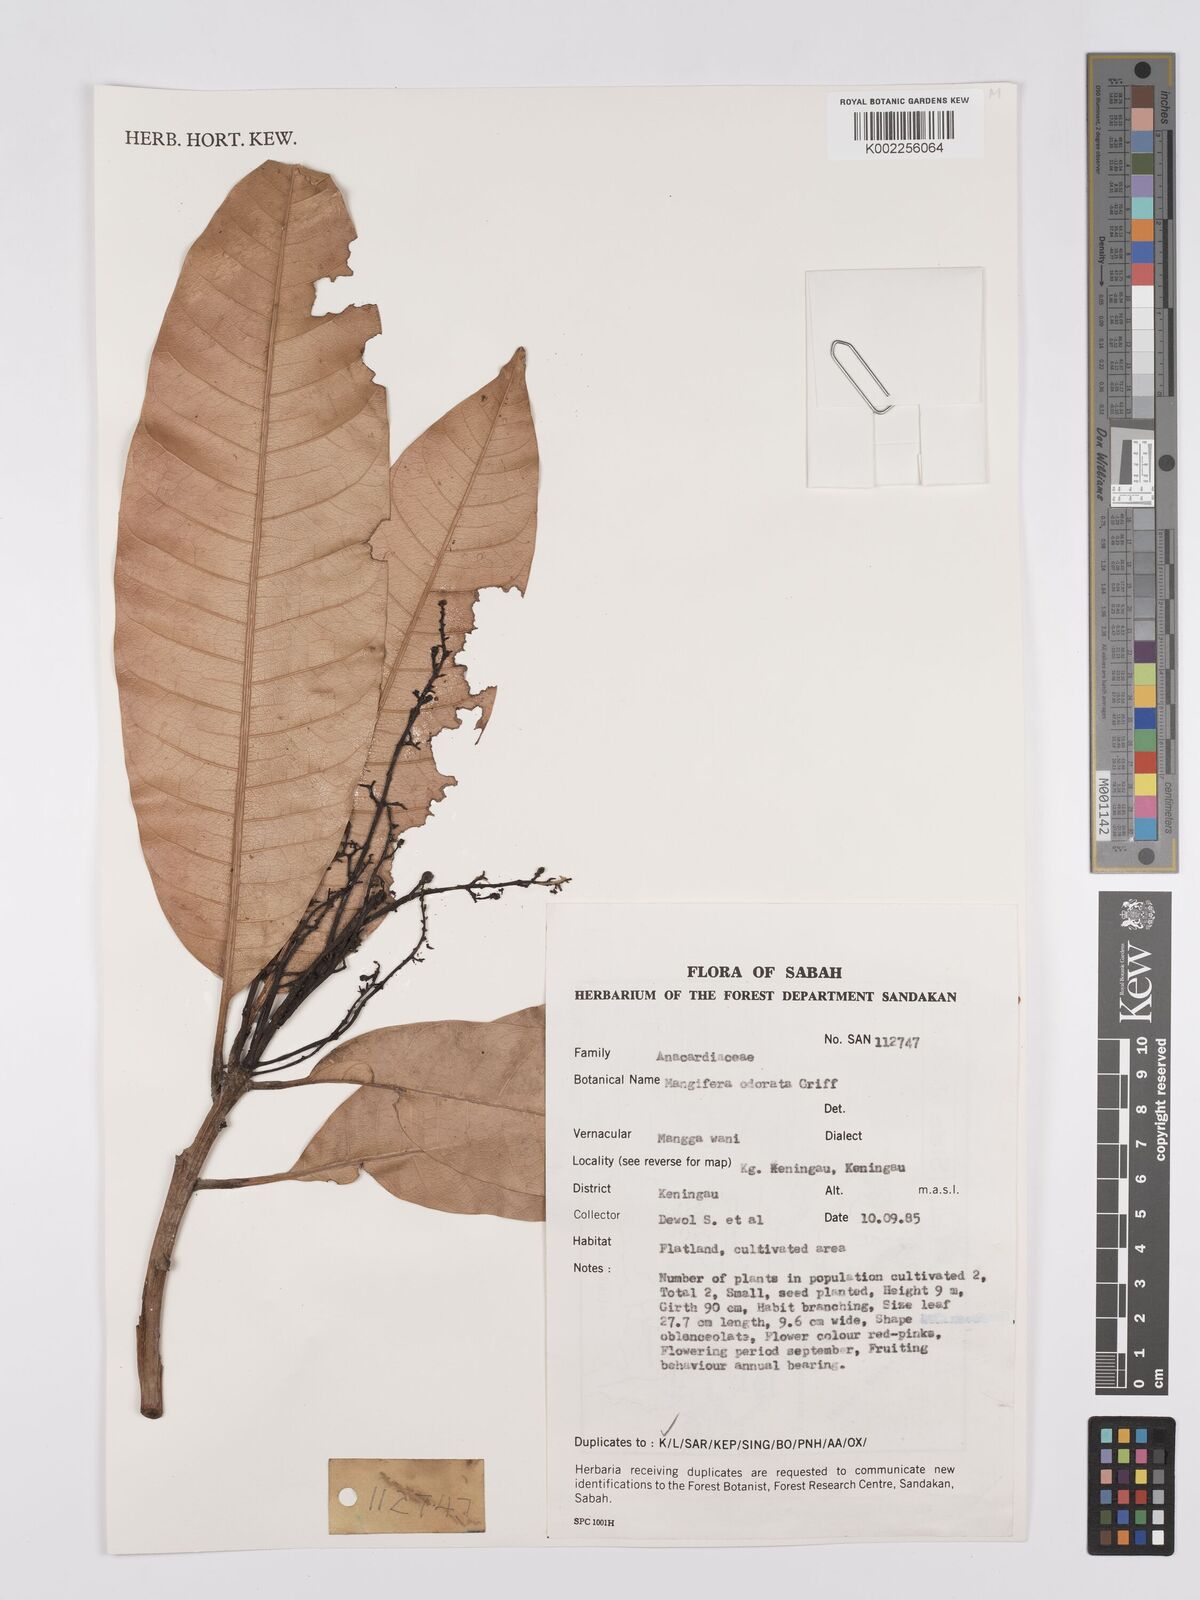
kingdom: Plantae
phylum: Tracheophyta
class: Magnoliopsida
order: Sapindales
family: Anacardiaceae
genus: Mangifera
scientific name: Mangifera odorata
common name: Saipan mango
